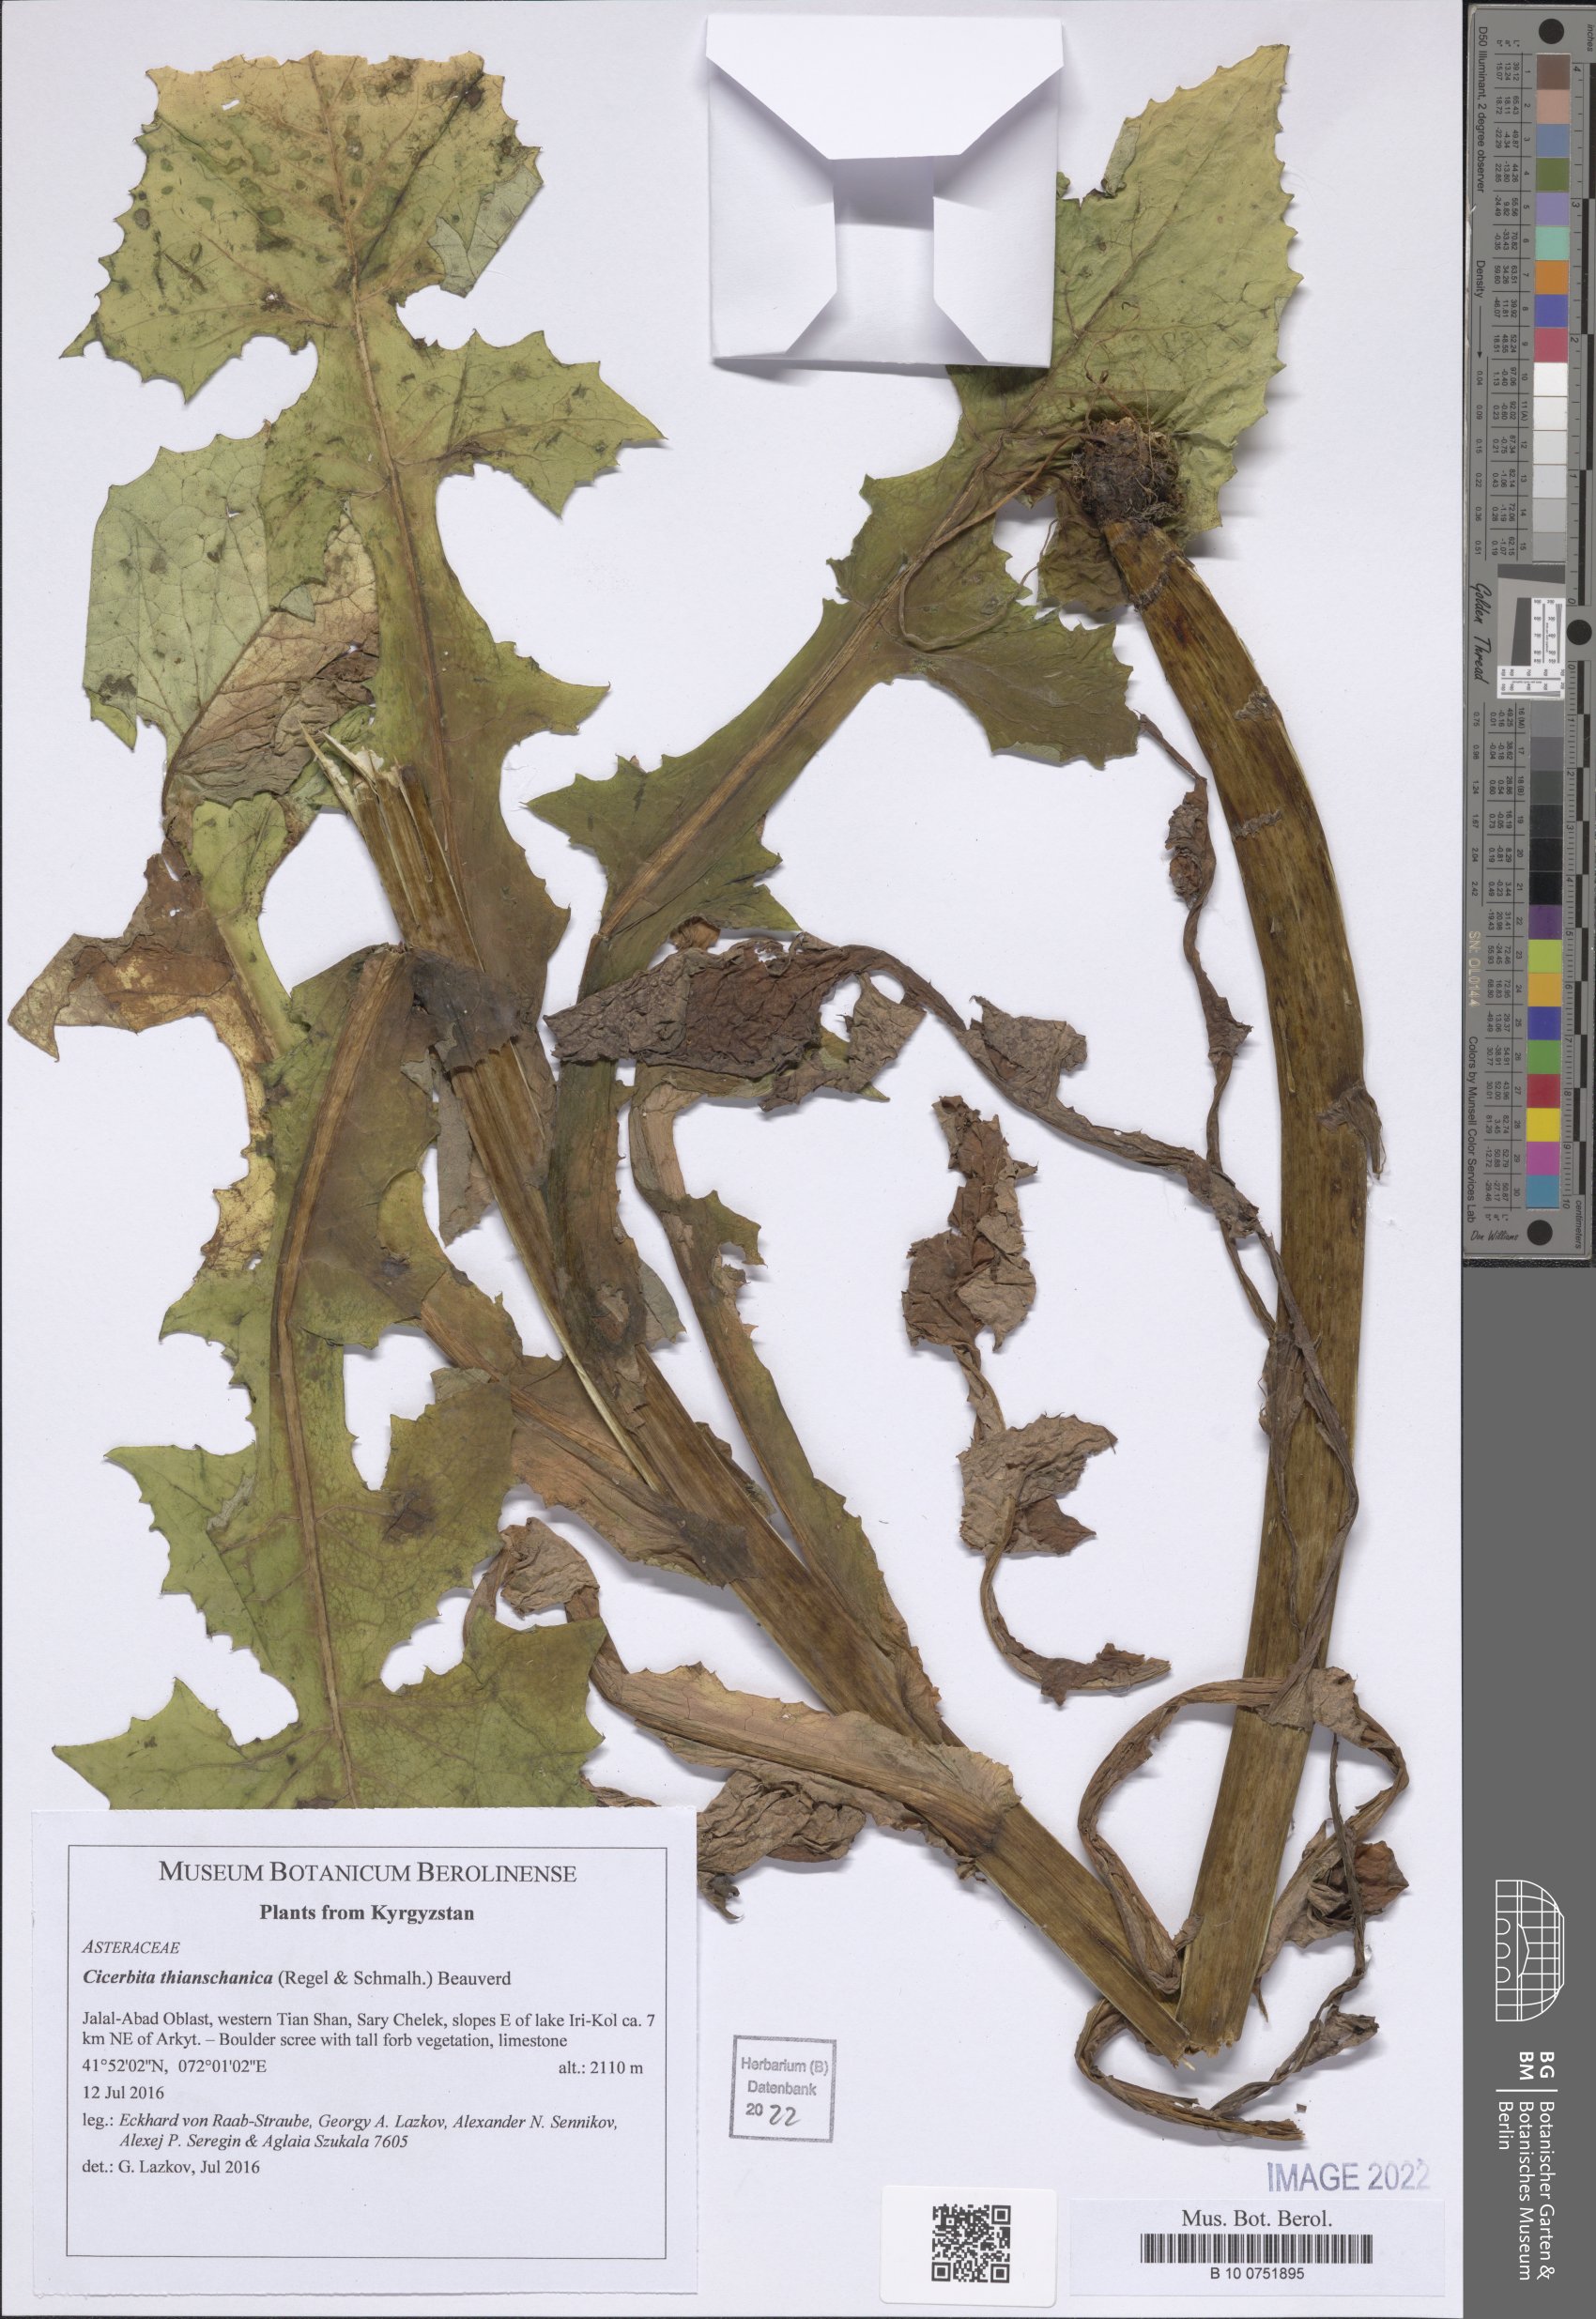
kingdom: Plantae
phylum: Tracheophyta
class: Magnoliopsida
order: Asterales
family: Asteraceae
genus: Cicerbita
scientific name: Cicerbita thianschanica
